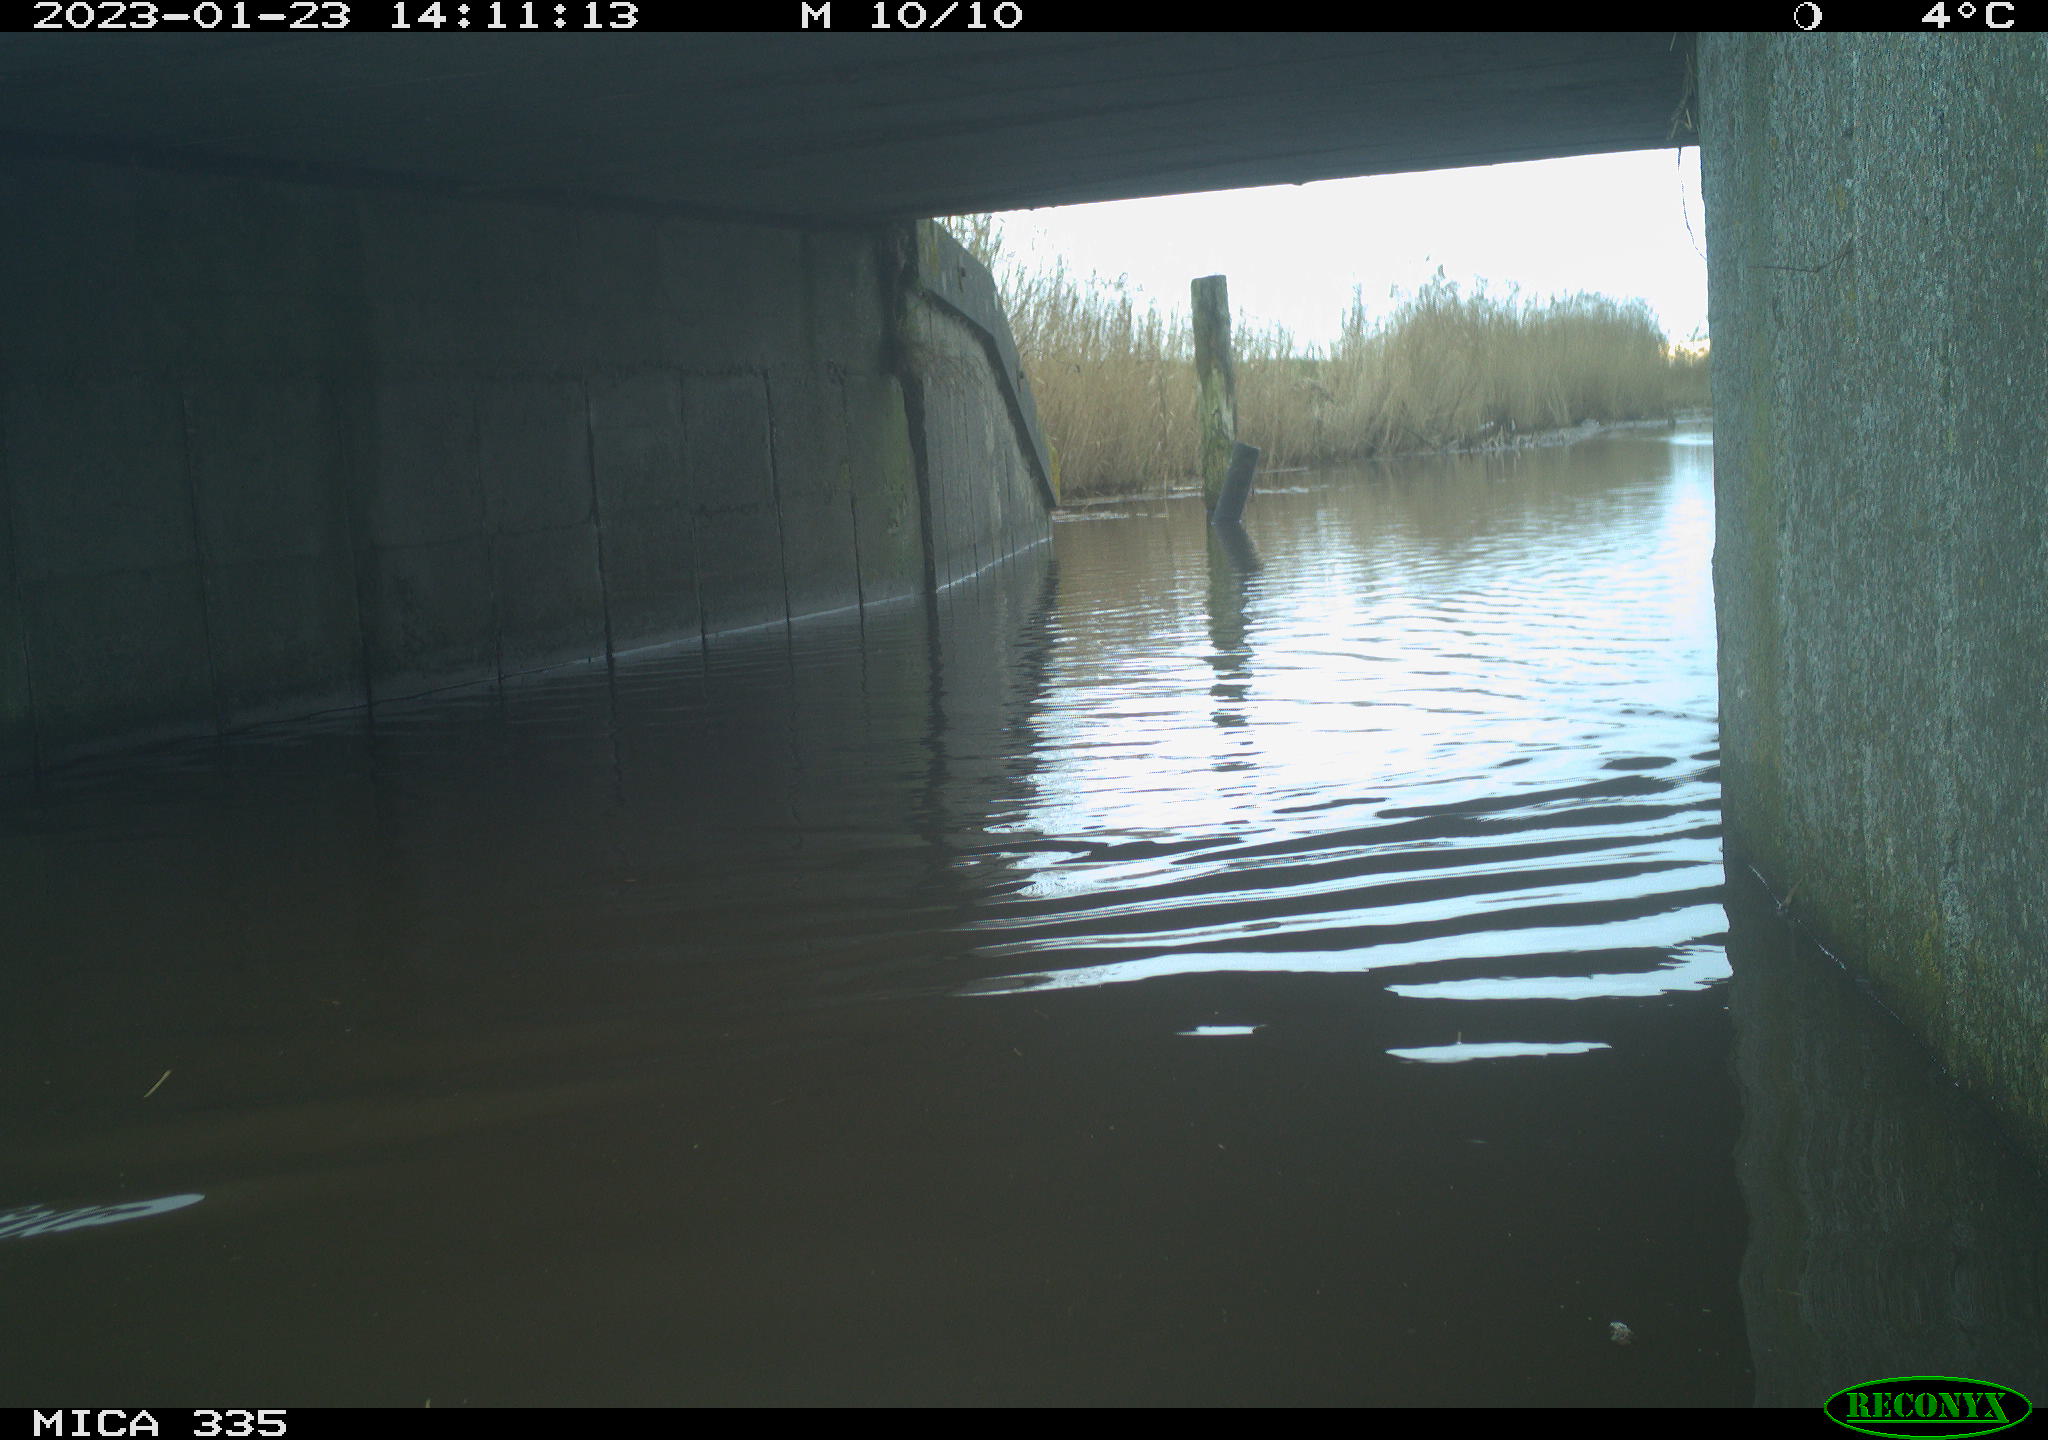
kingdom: Animalia
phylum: Chordata
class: Aves
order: Anseriformes
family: Anatidae
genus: Anas
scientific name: Anas
